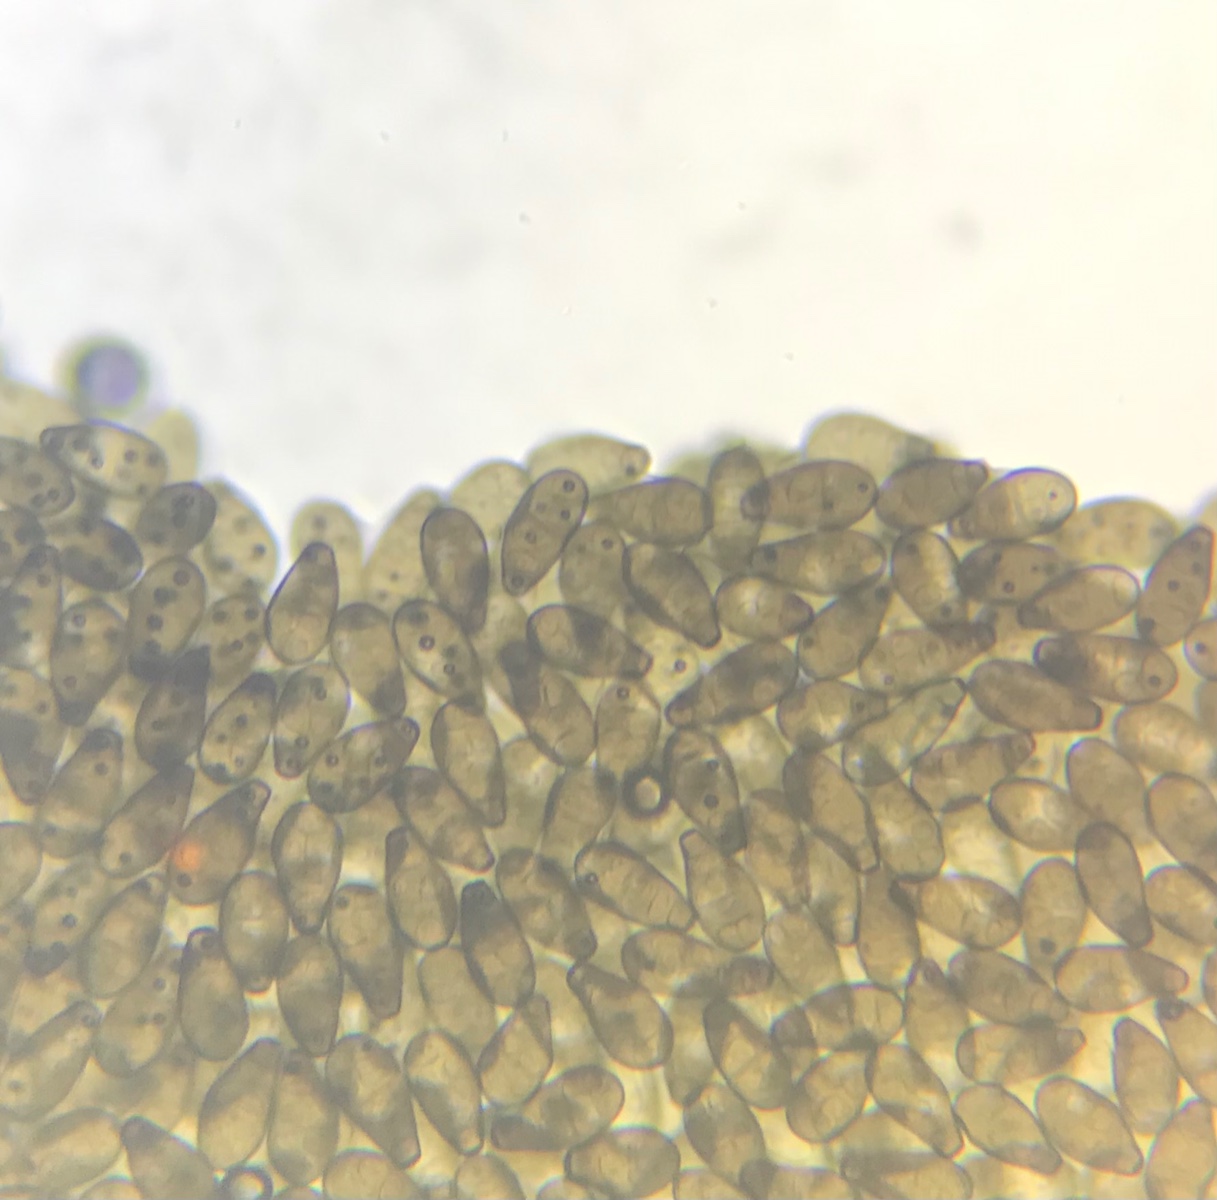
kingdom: Fungi
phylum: Ascomycota
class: Sordariomycetes
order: Diaporthales
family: Melanconidaceae
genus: Prosthecium
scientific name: Prosthecium pyriforme
